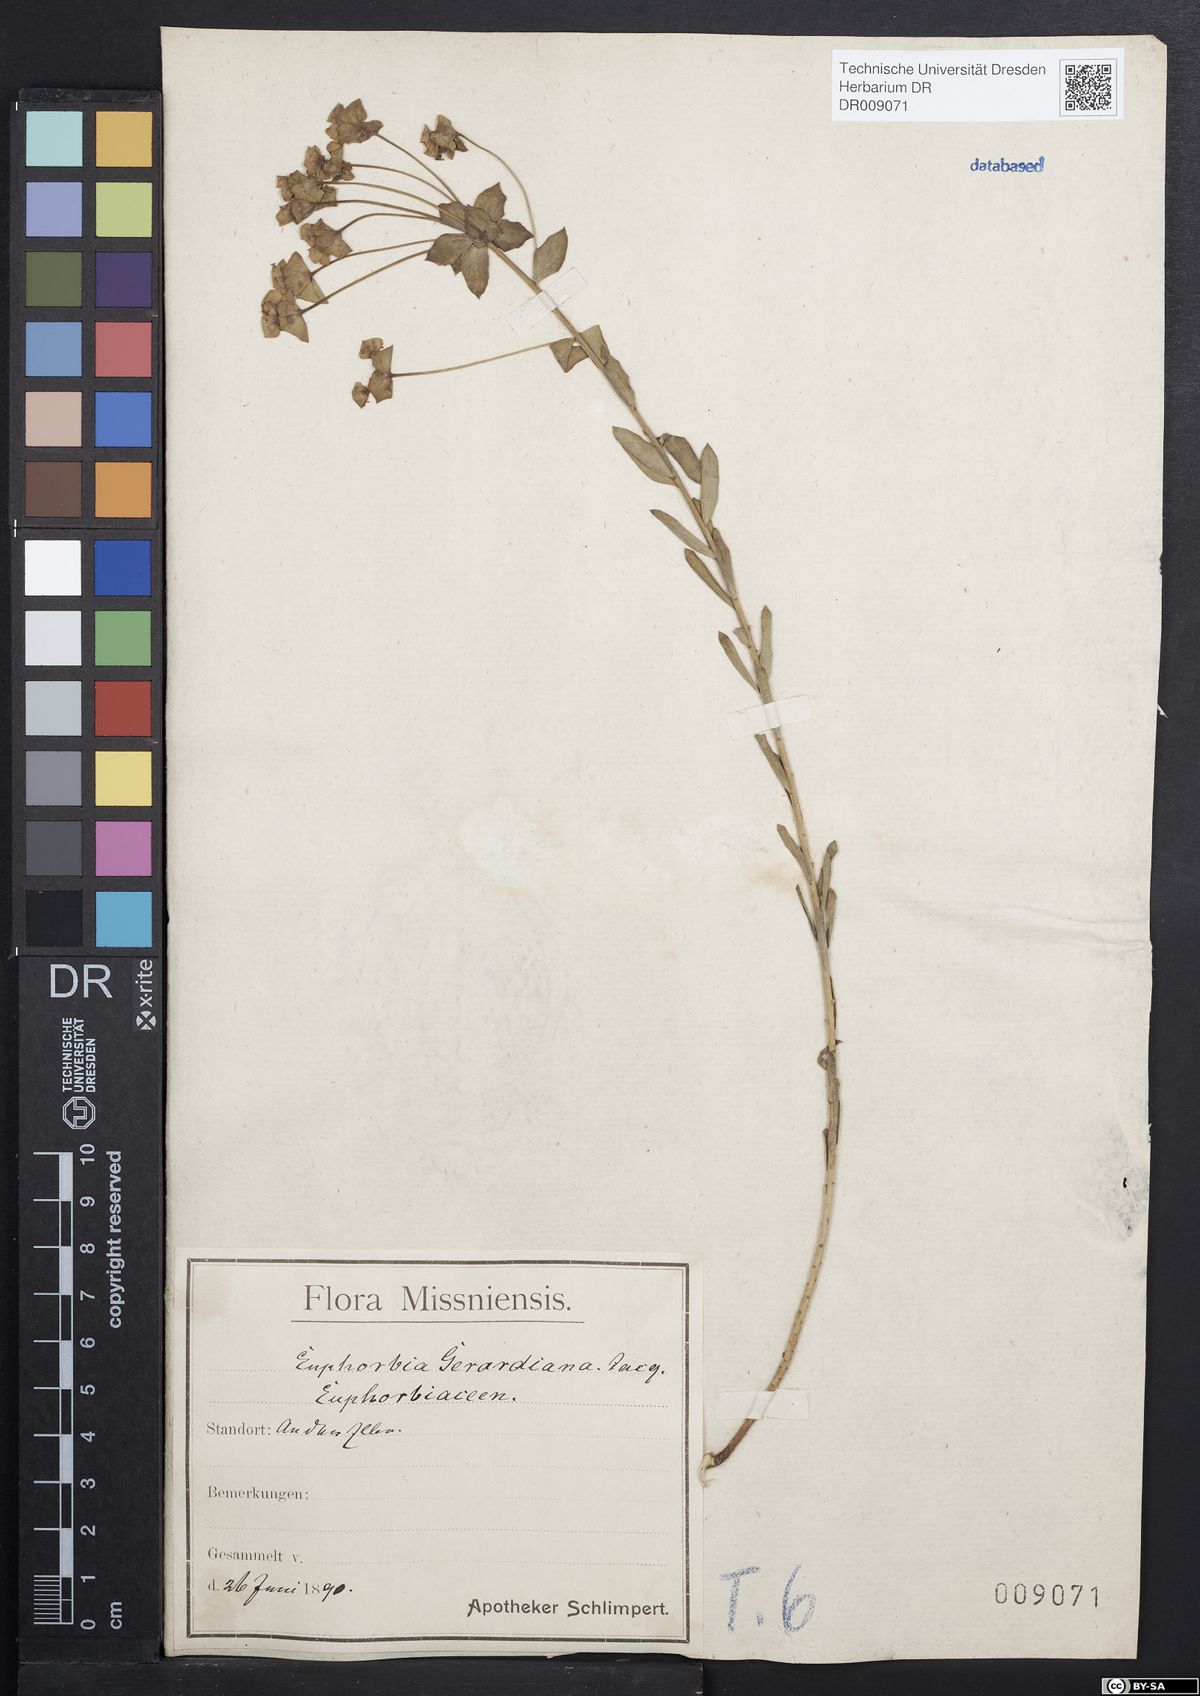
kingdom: Plantae
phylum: Tracheophyta
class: Magnoliopsida
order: Malpighiales
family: Euphorbiaceae
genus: Euphorbia
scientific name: Euphorbia seguieriana
